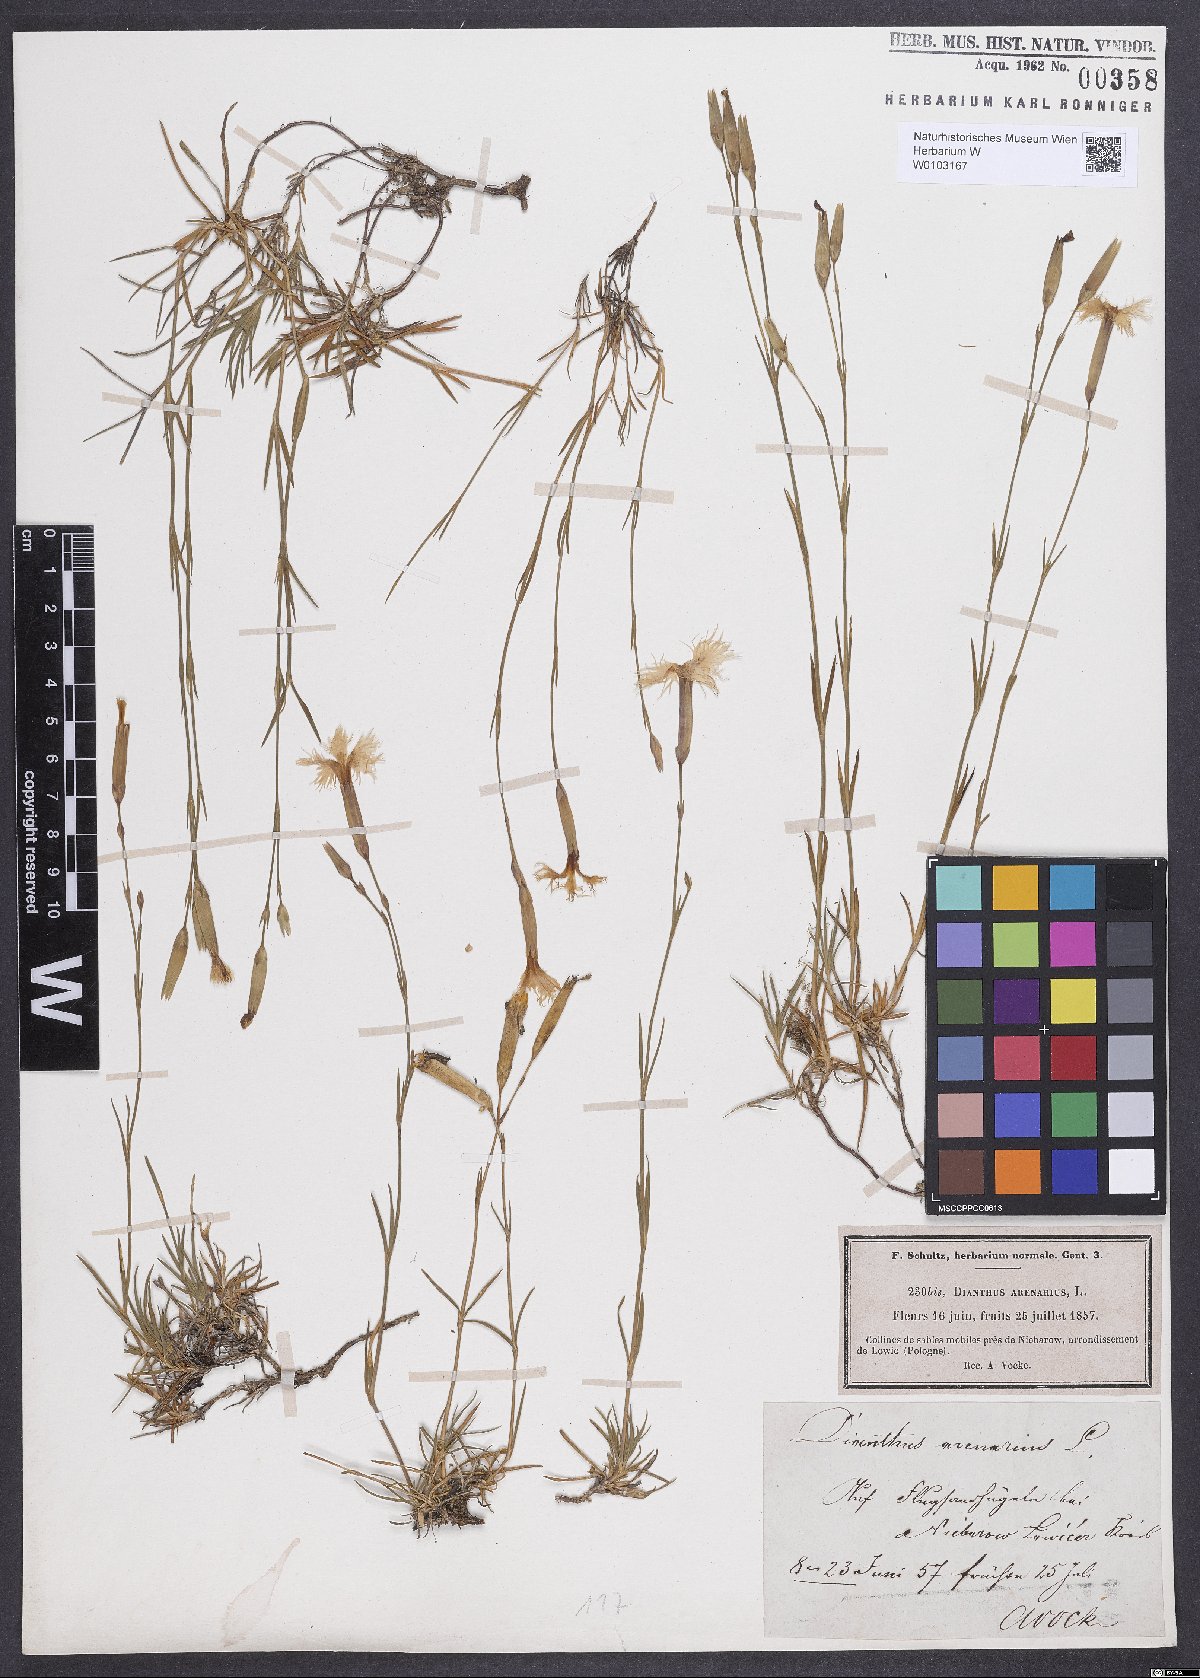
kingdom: Plantae
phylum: Tracheophyta
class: Magnoliopsida
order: Caryophyllales
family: Caryophyllaceae
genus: Dianthus
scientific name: Dianthus arenarius
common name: Stone pink
